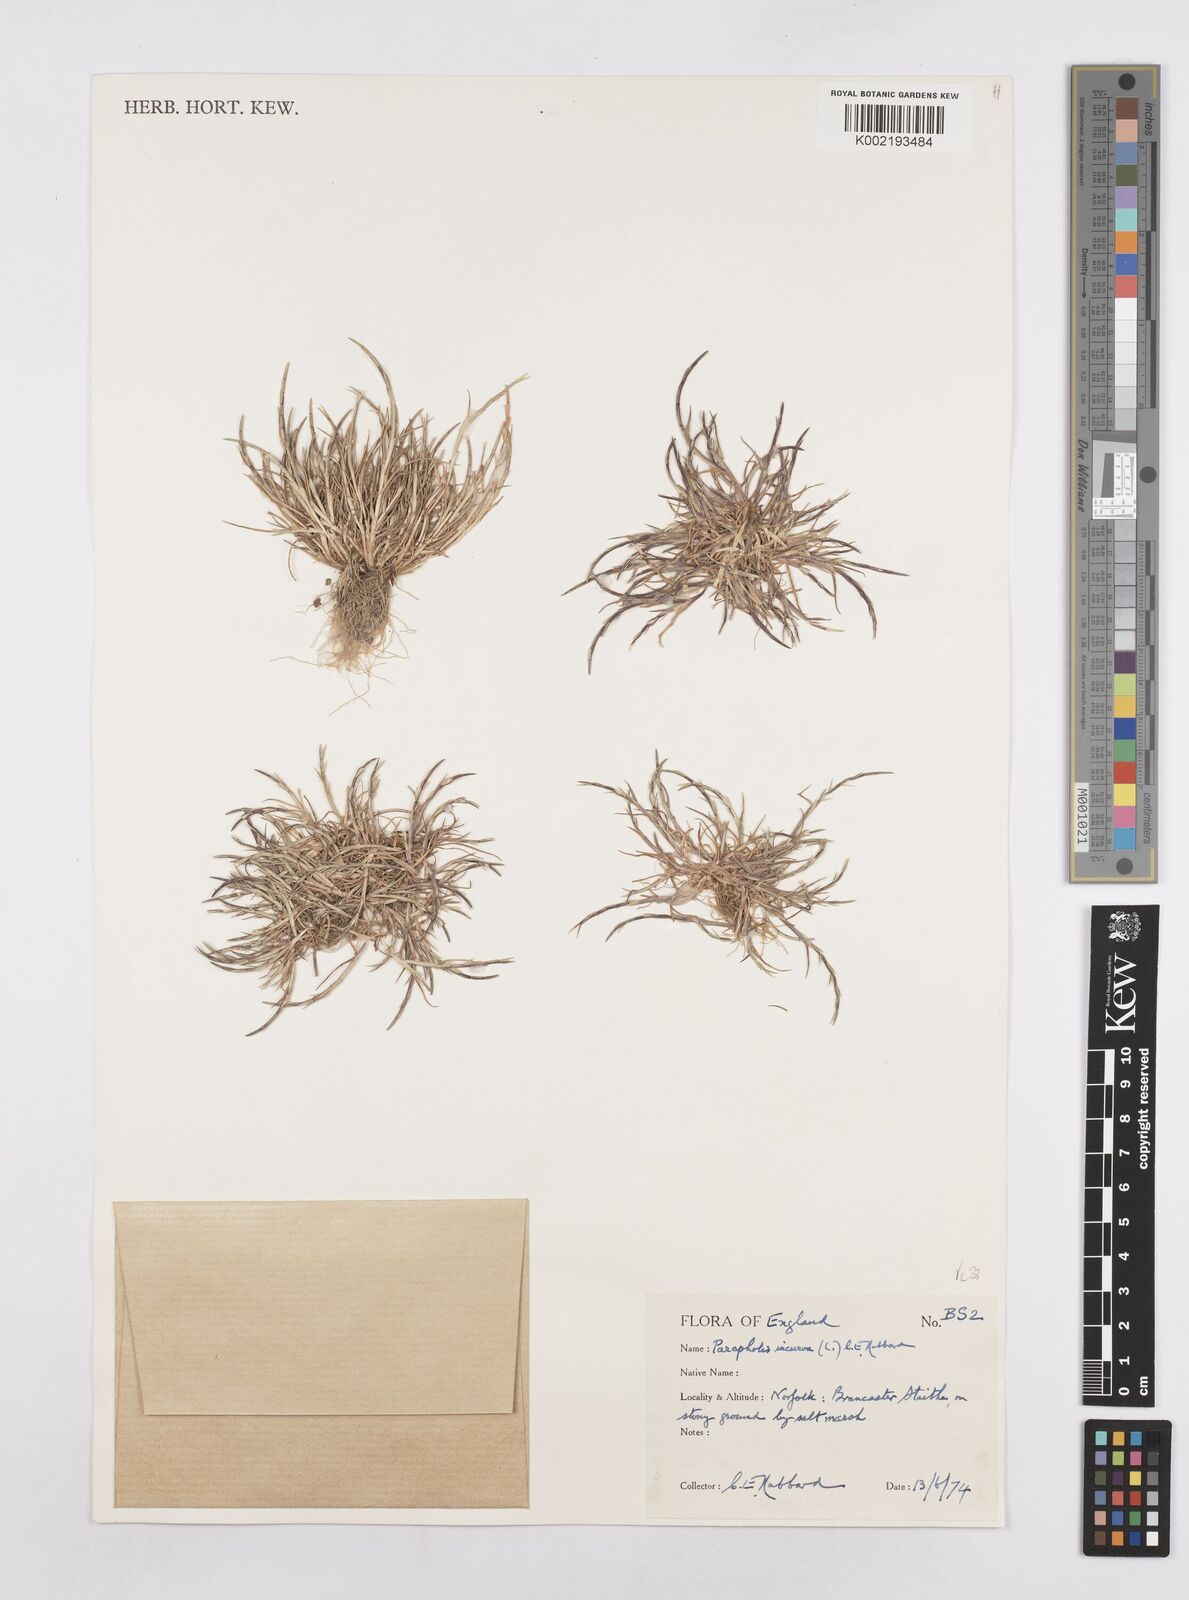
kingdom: Plantae
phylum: Tracheophyta
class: Liliopsida
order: Poales
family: Poaceae
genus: Parapholis
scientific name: Parapholis incurva
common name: Curved sicklegrass
